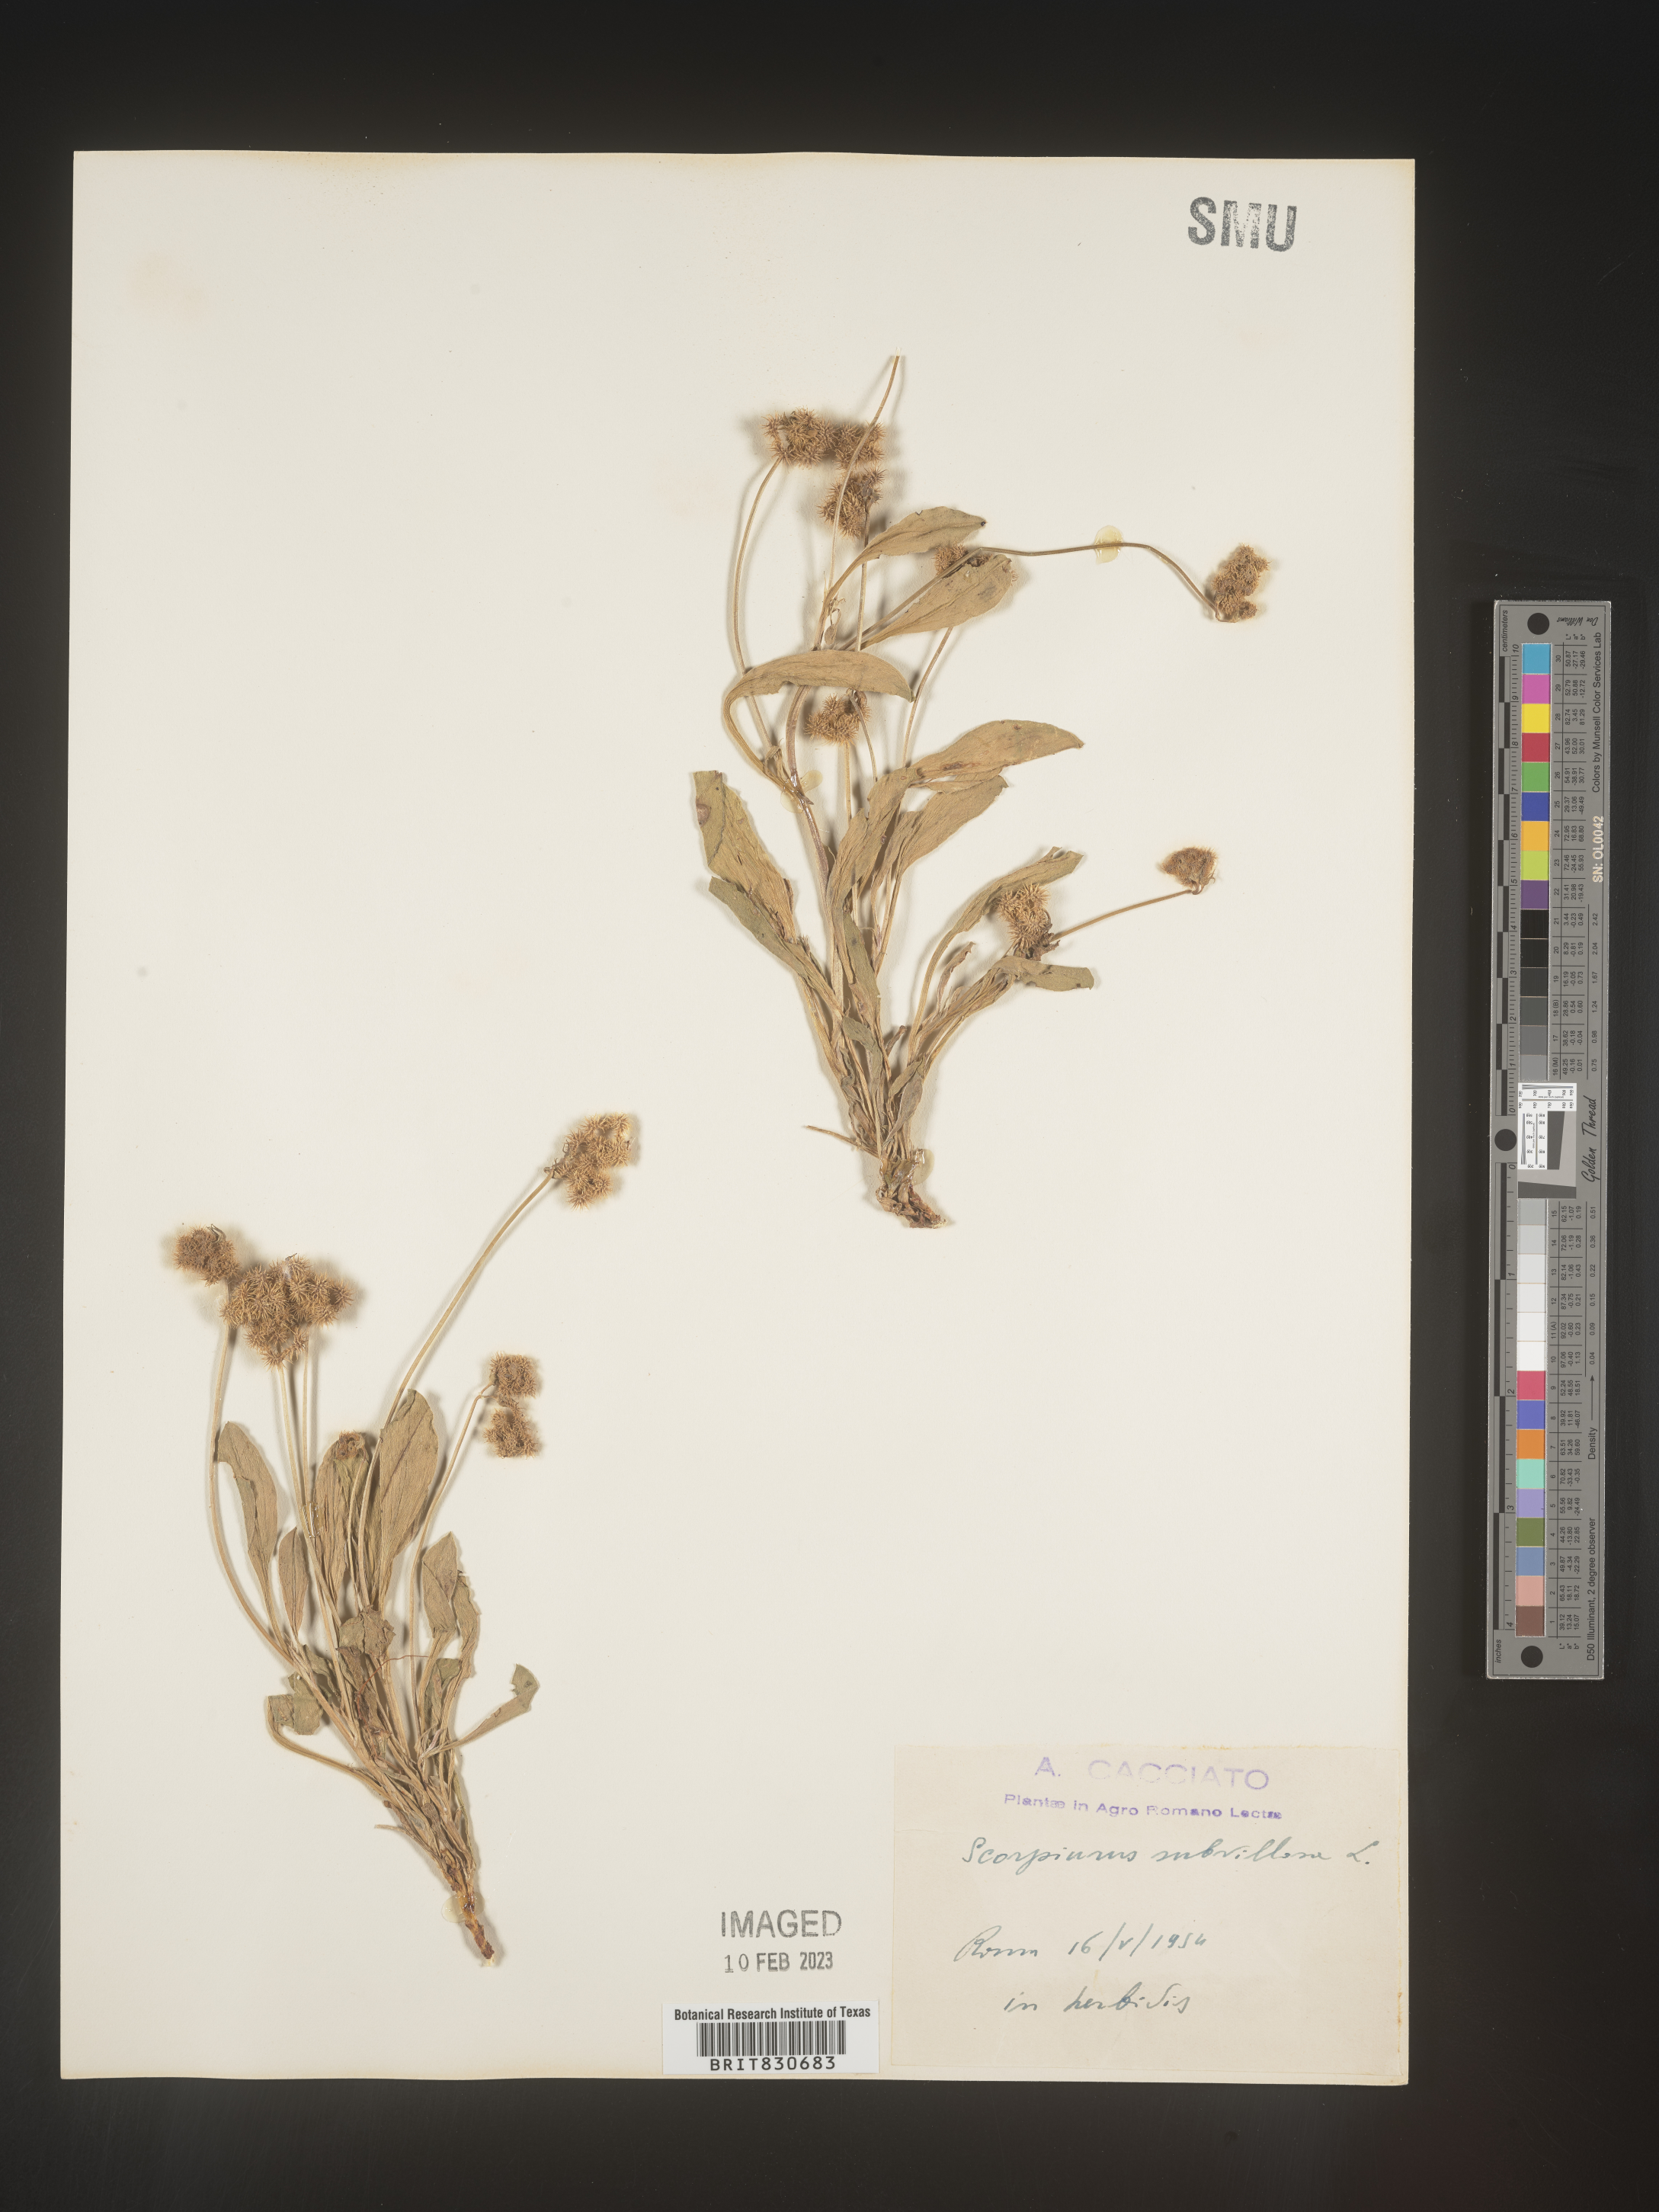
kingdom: Plantae
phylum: Tracheophyta
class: Magnoliopsida
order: Fabales
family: Fabaceae
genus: Scorpiurus
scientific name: Scorpiurus
